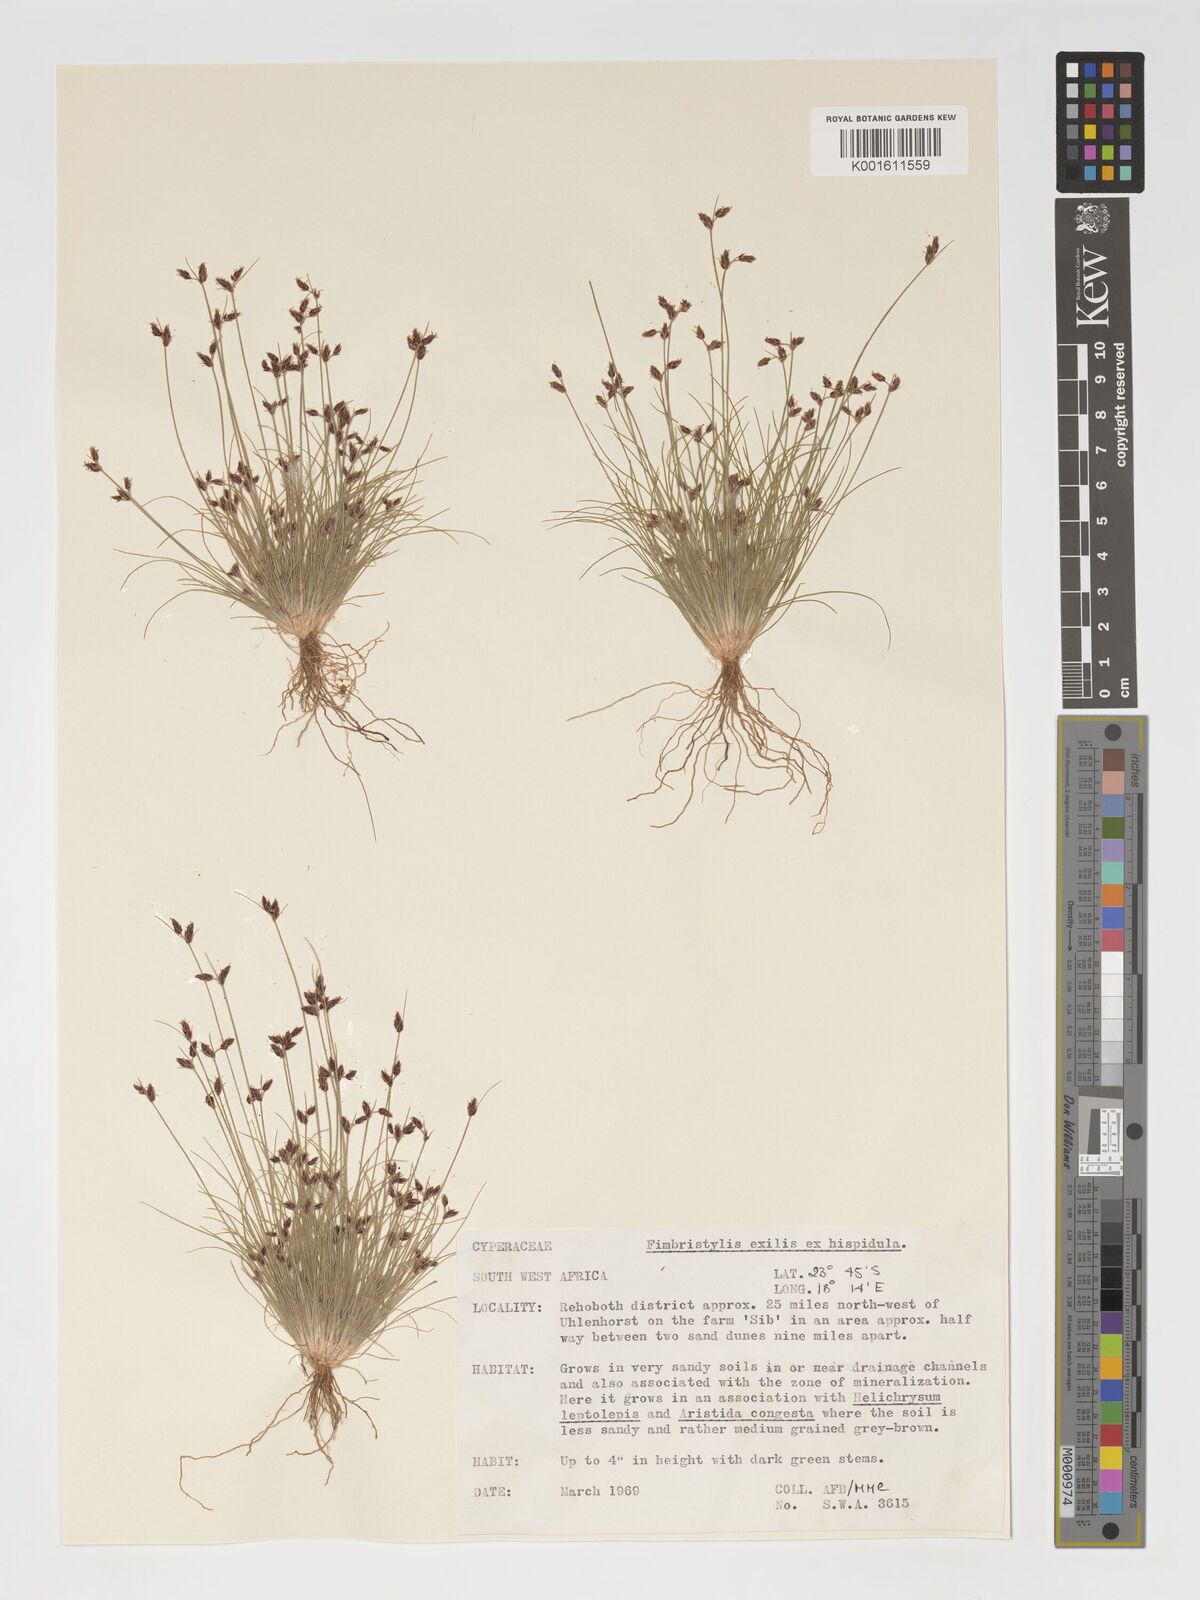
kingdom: Plantae
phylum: Tracheophyta
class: Liliopsida
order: Poales
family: Cyperaceae
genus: Bulbostylis
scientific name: Bulbostylis hispidula
